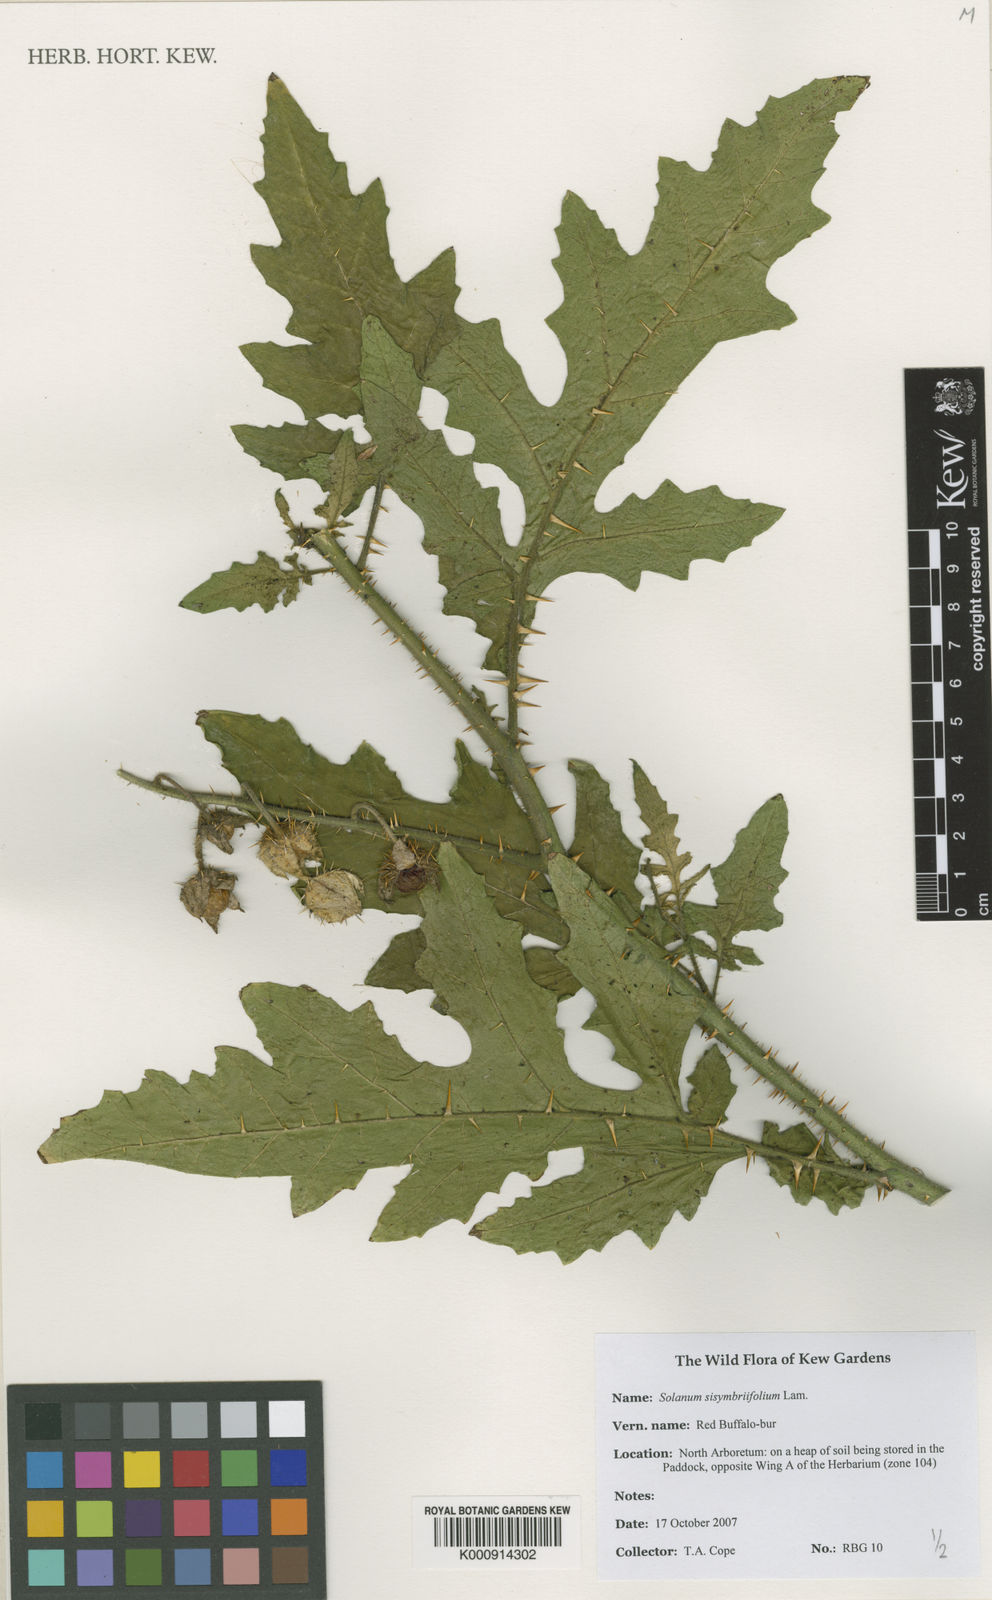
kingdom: Plantae
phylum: Tracheophyta
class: Magnoliopsida
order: Solanales
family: Solanaceae
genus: Solanum
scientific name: Solanum sisymbriifolium
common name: Red buffalo-bur
